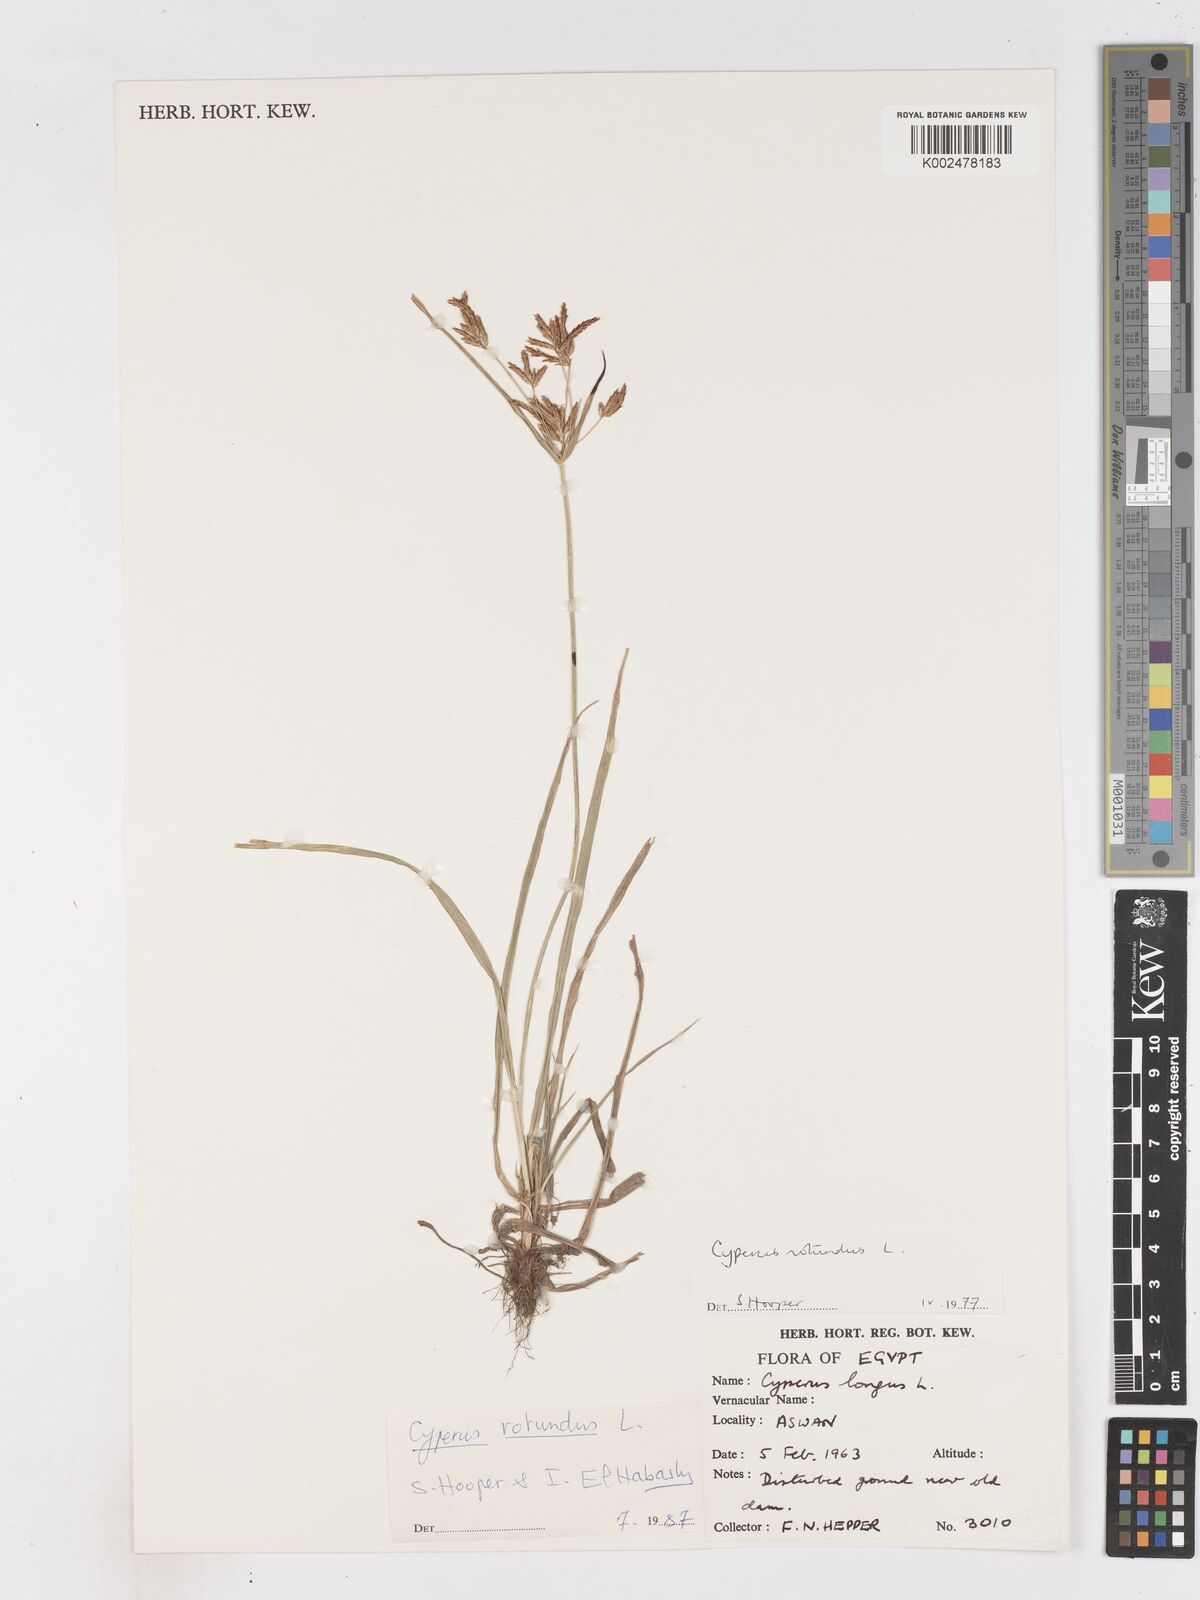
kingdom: Plantae
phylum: Tracheophyta
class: Liliopsida
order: Poales
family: Cyperaceae
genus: Cyperus
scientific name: Cyperus rotundus
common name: Nutgrass
